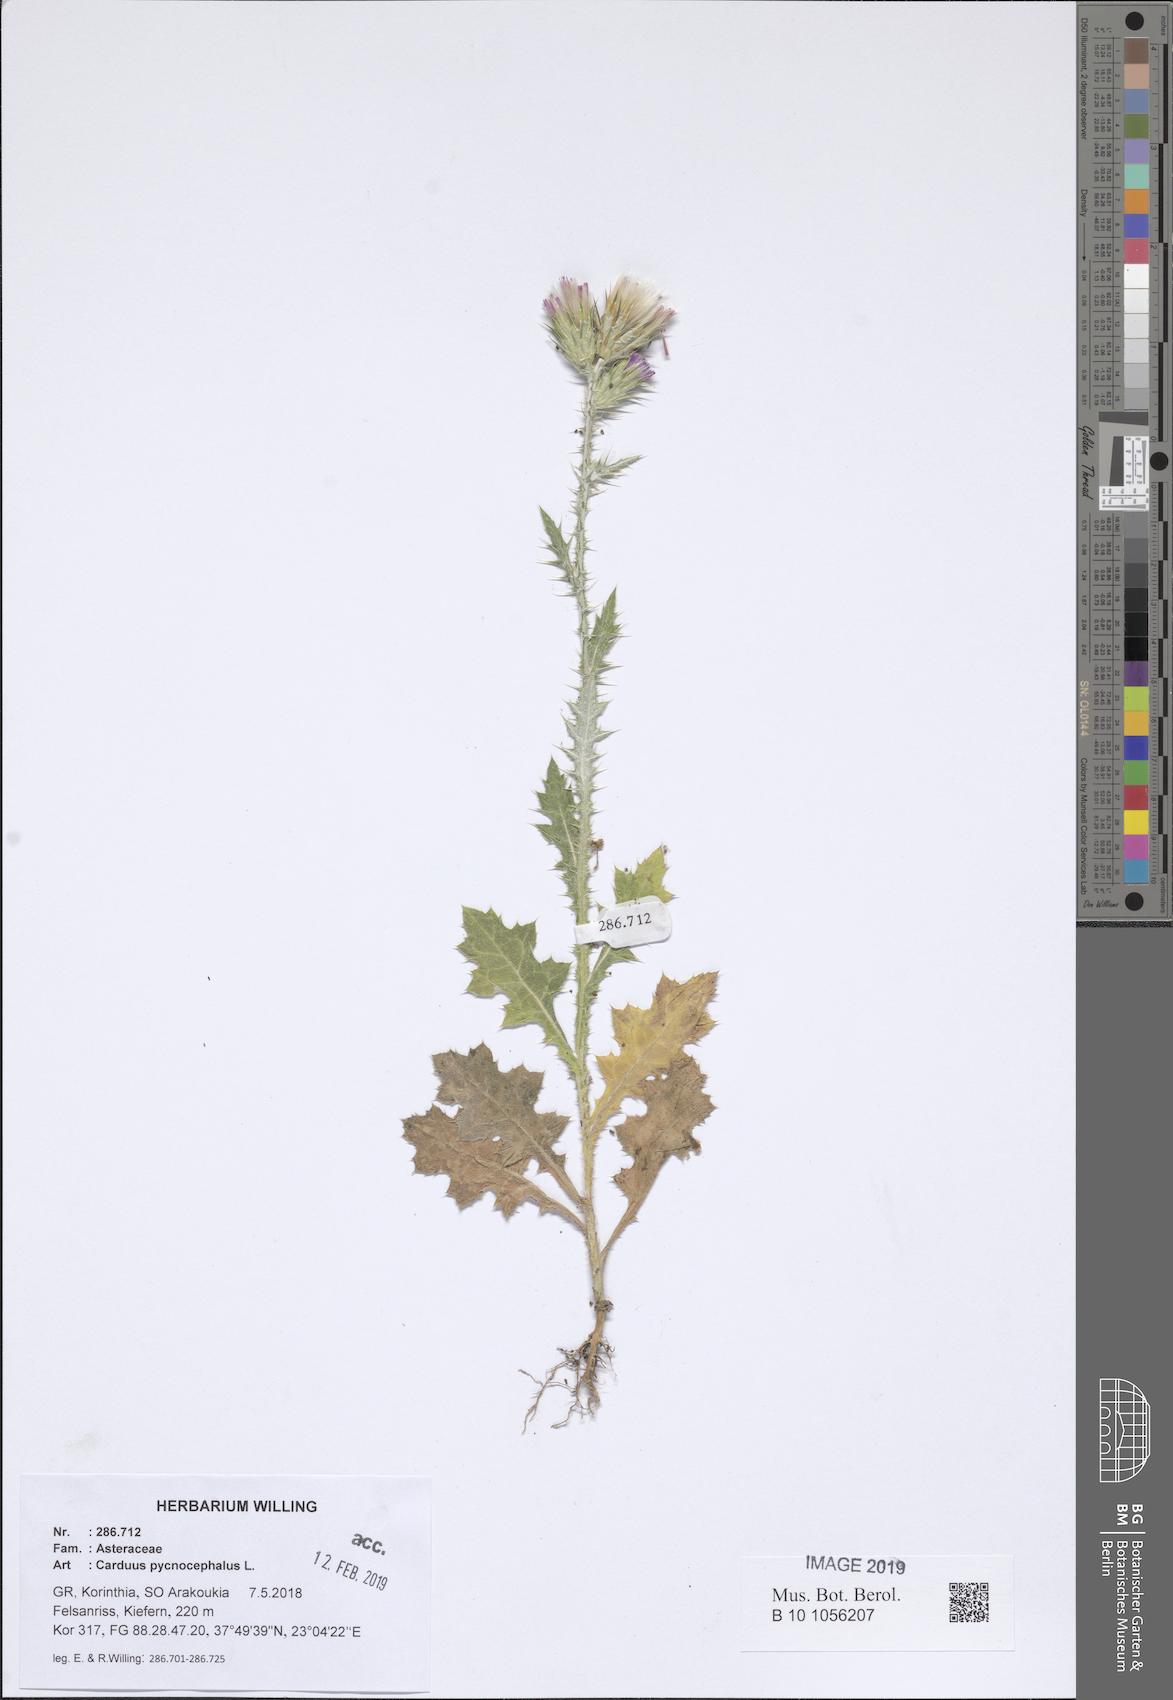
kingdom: Plantae
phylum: Tracheophyta
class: Magnoliopsida
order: Asterales
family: Asteraceae
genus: Carduus
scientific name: Carduus pycnocephalus
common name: Plymouth thistle
